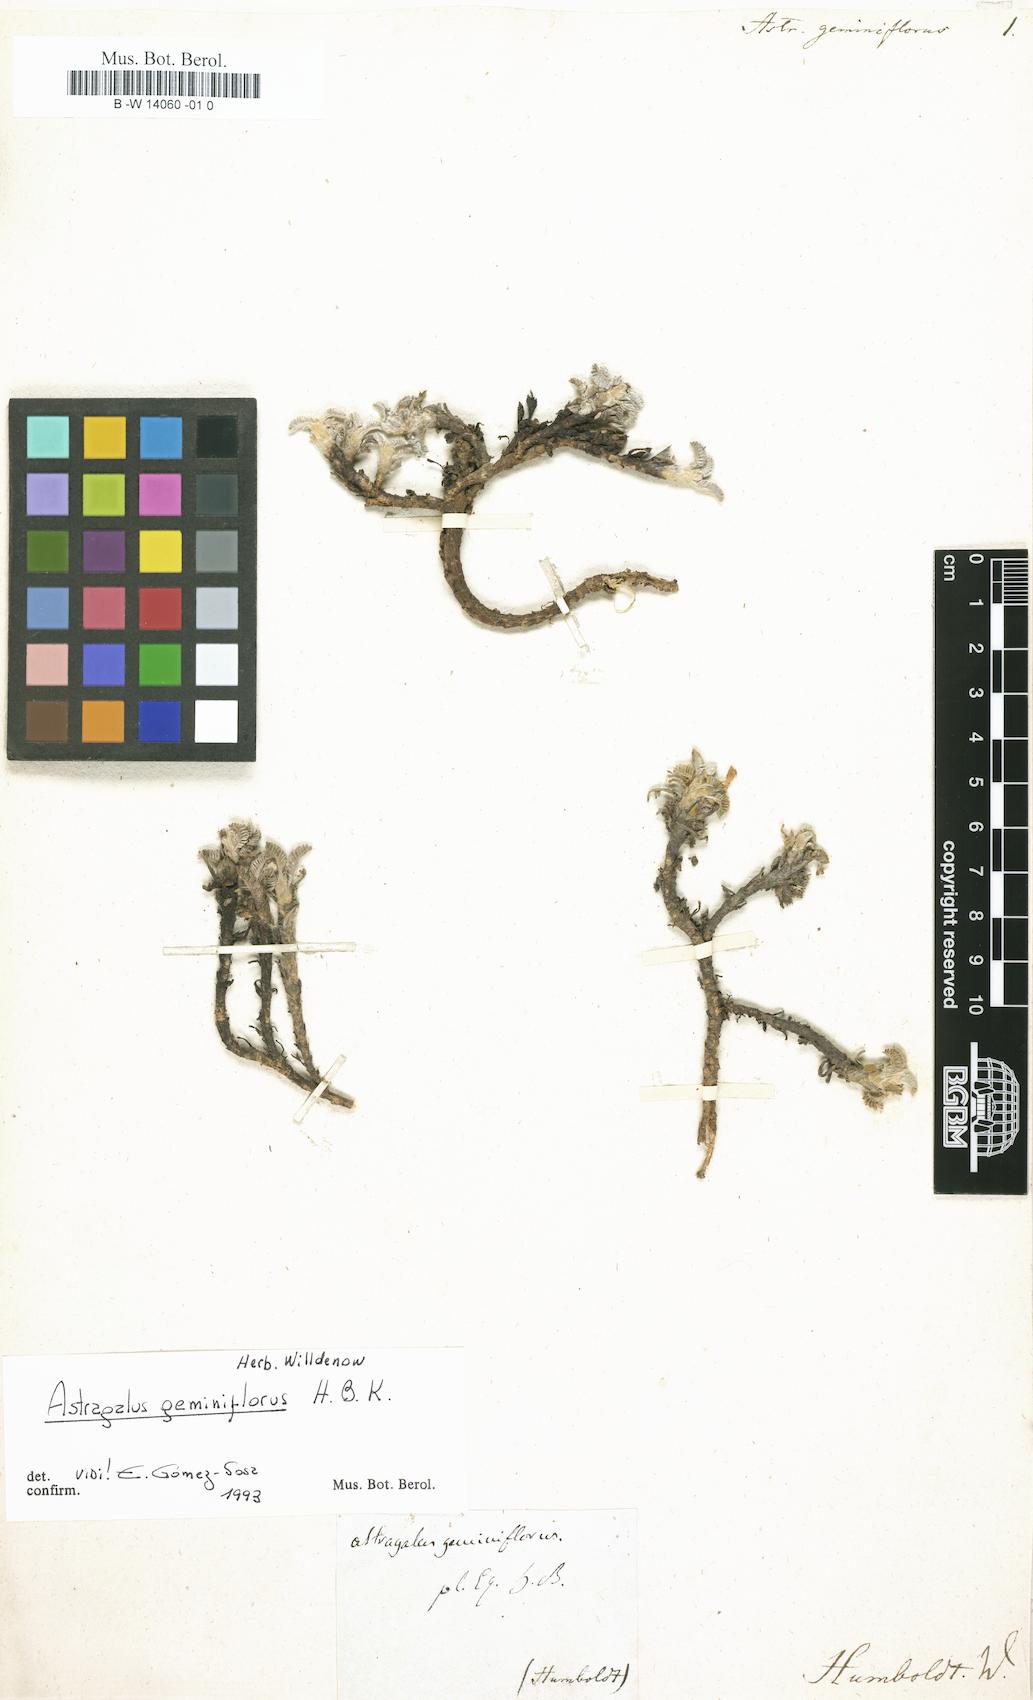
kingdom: Plantae
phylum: Tracheophyta
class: Magnoliopsida
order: Fabales
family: Fabaceae
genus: Astragalus
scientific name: Astragalus geminiflorus
